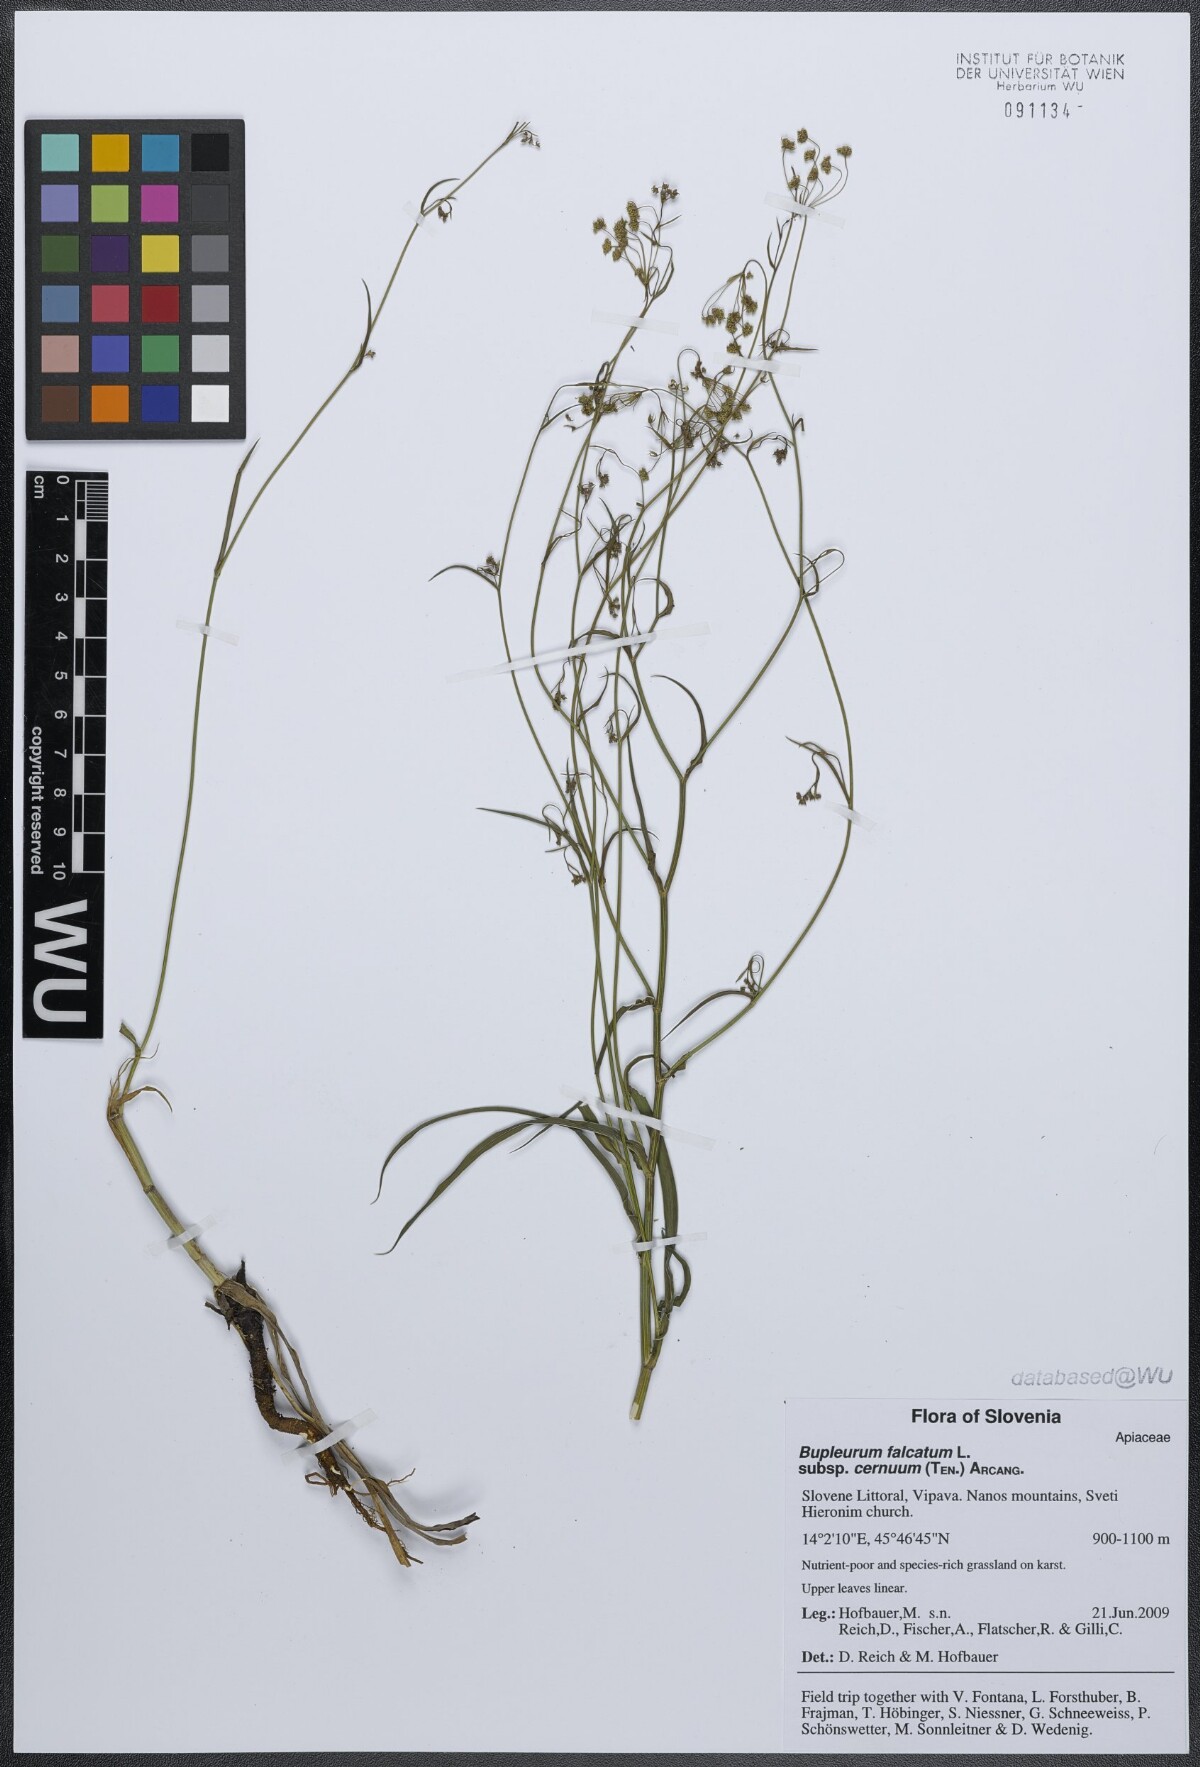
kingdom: Plantae
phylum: Tracheophyta
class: Magnoliopsida
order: Apiales
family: Apiaceae
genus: Bupleurum
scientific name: Bupleurum exaltatum
